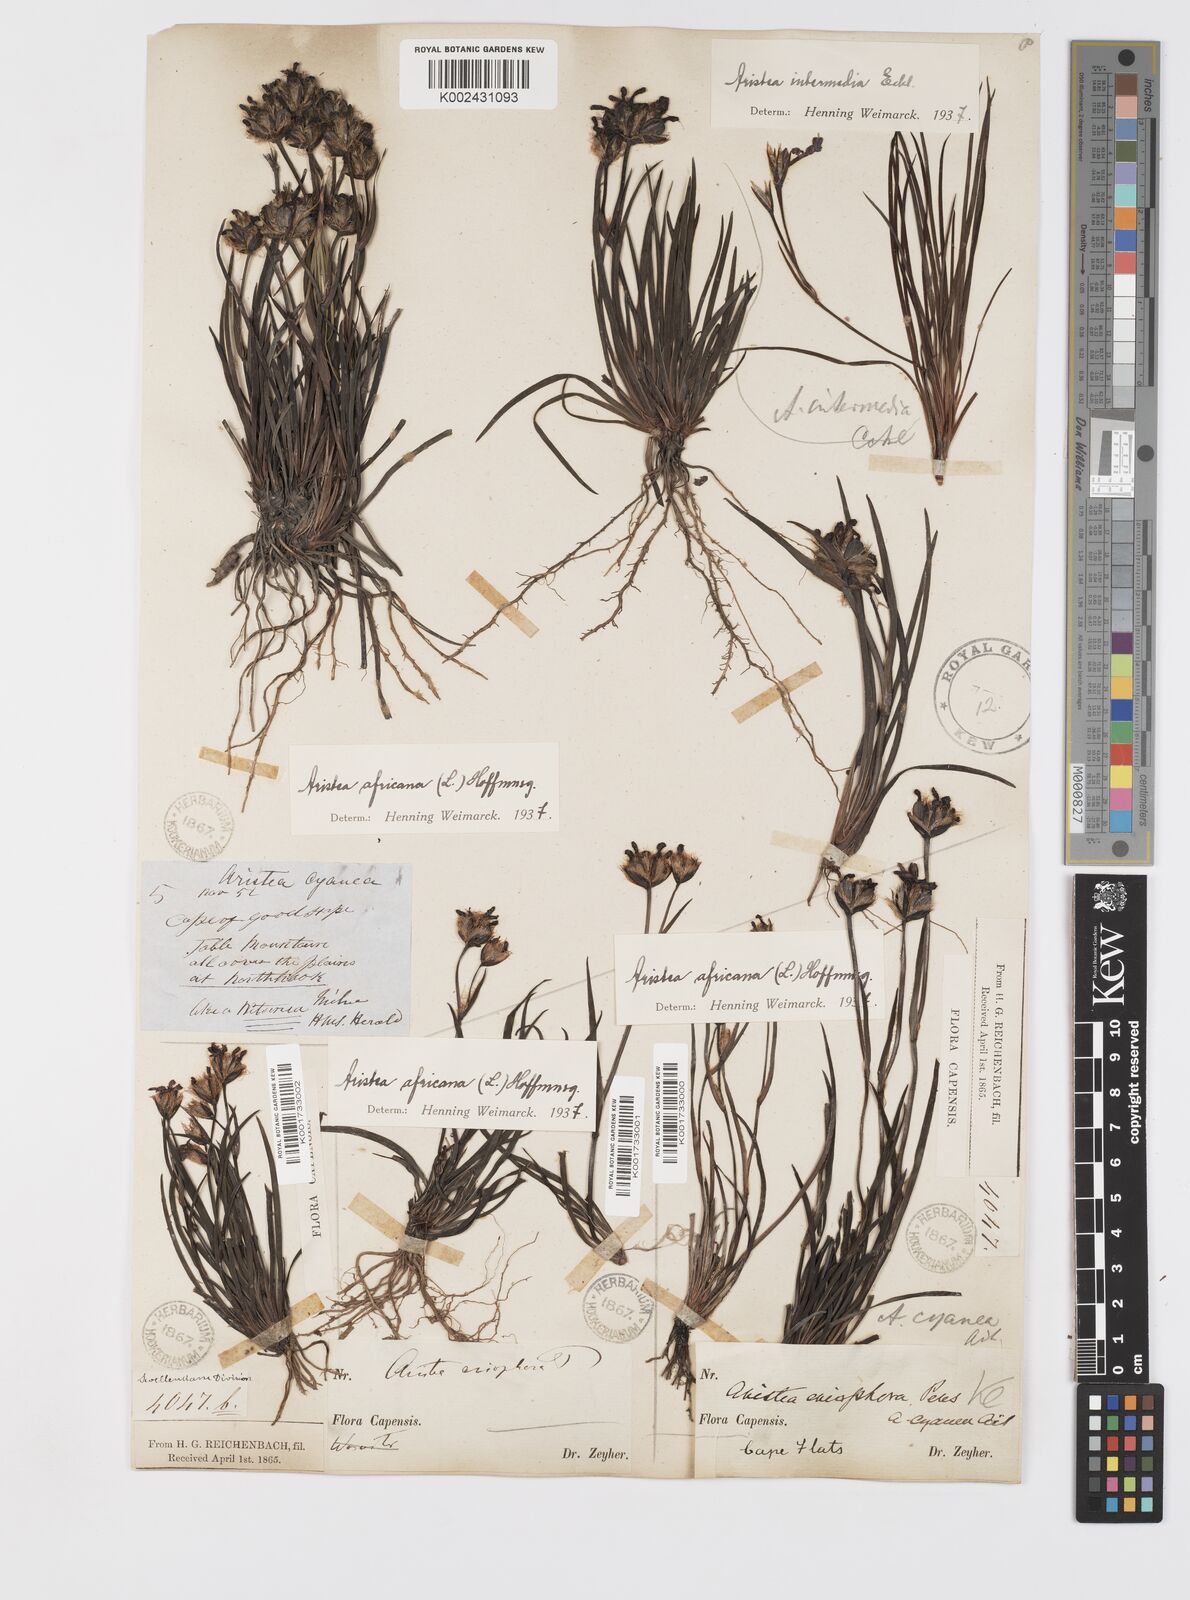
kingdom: Plantae
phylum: Tracheophyta
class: Liliopsida
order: Asparagales
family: Iridaceae
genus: Aristea
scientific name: Aristea africana
